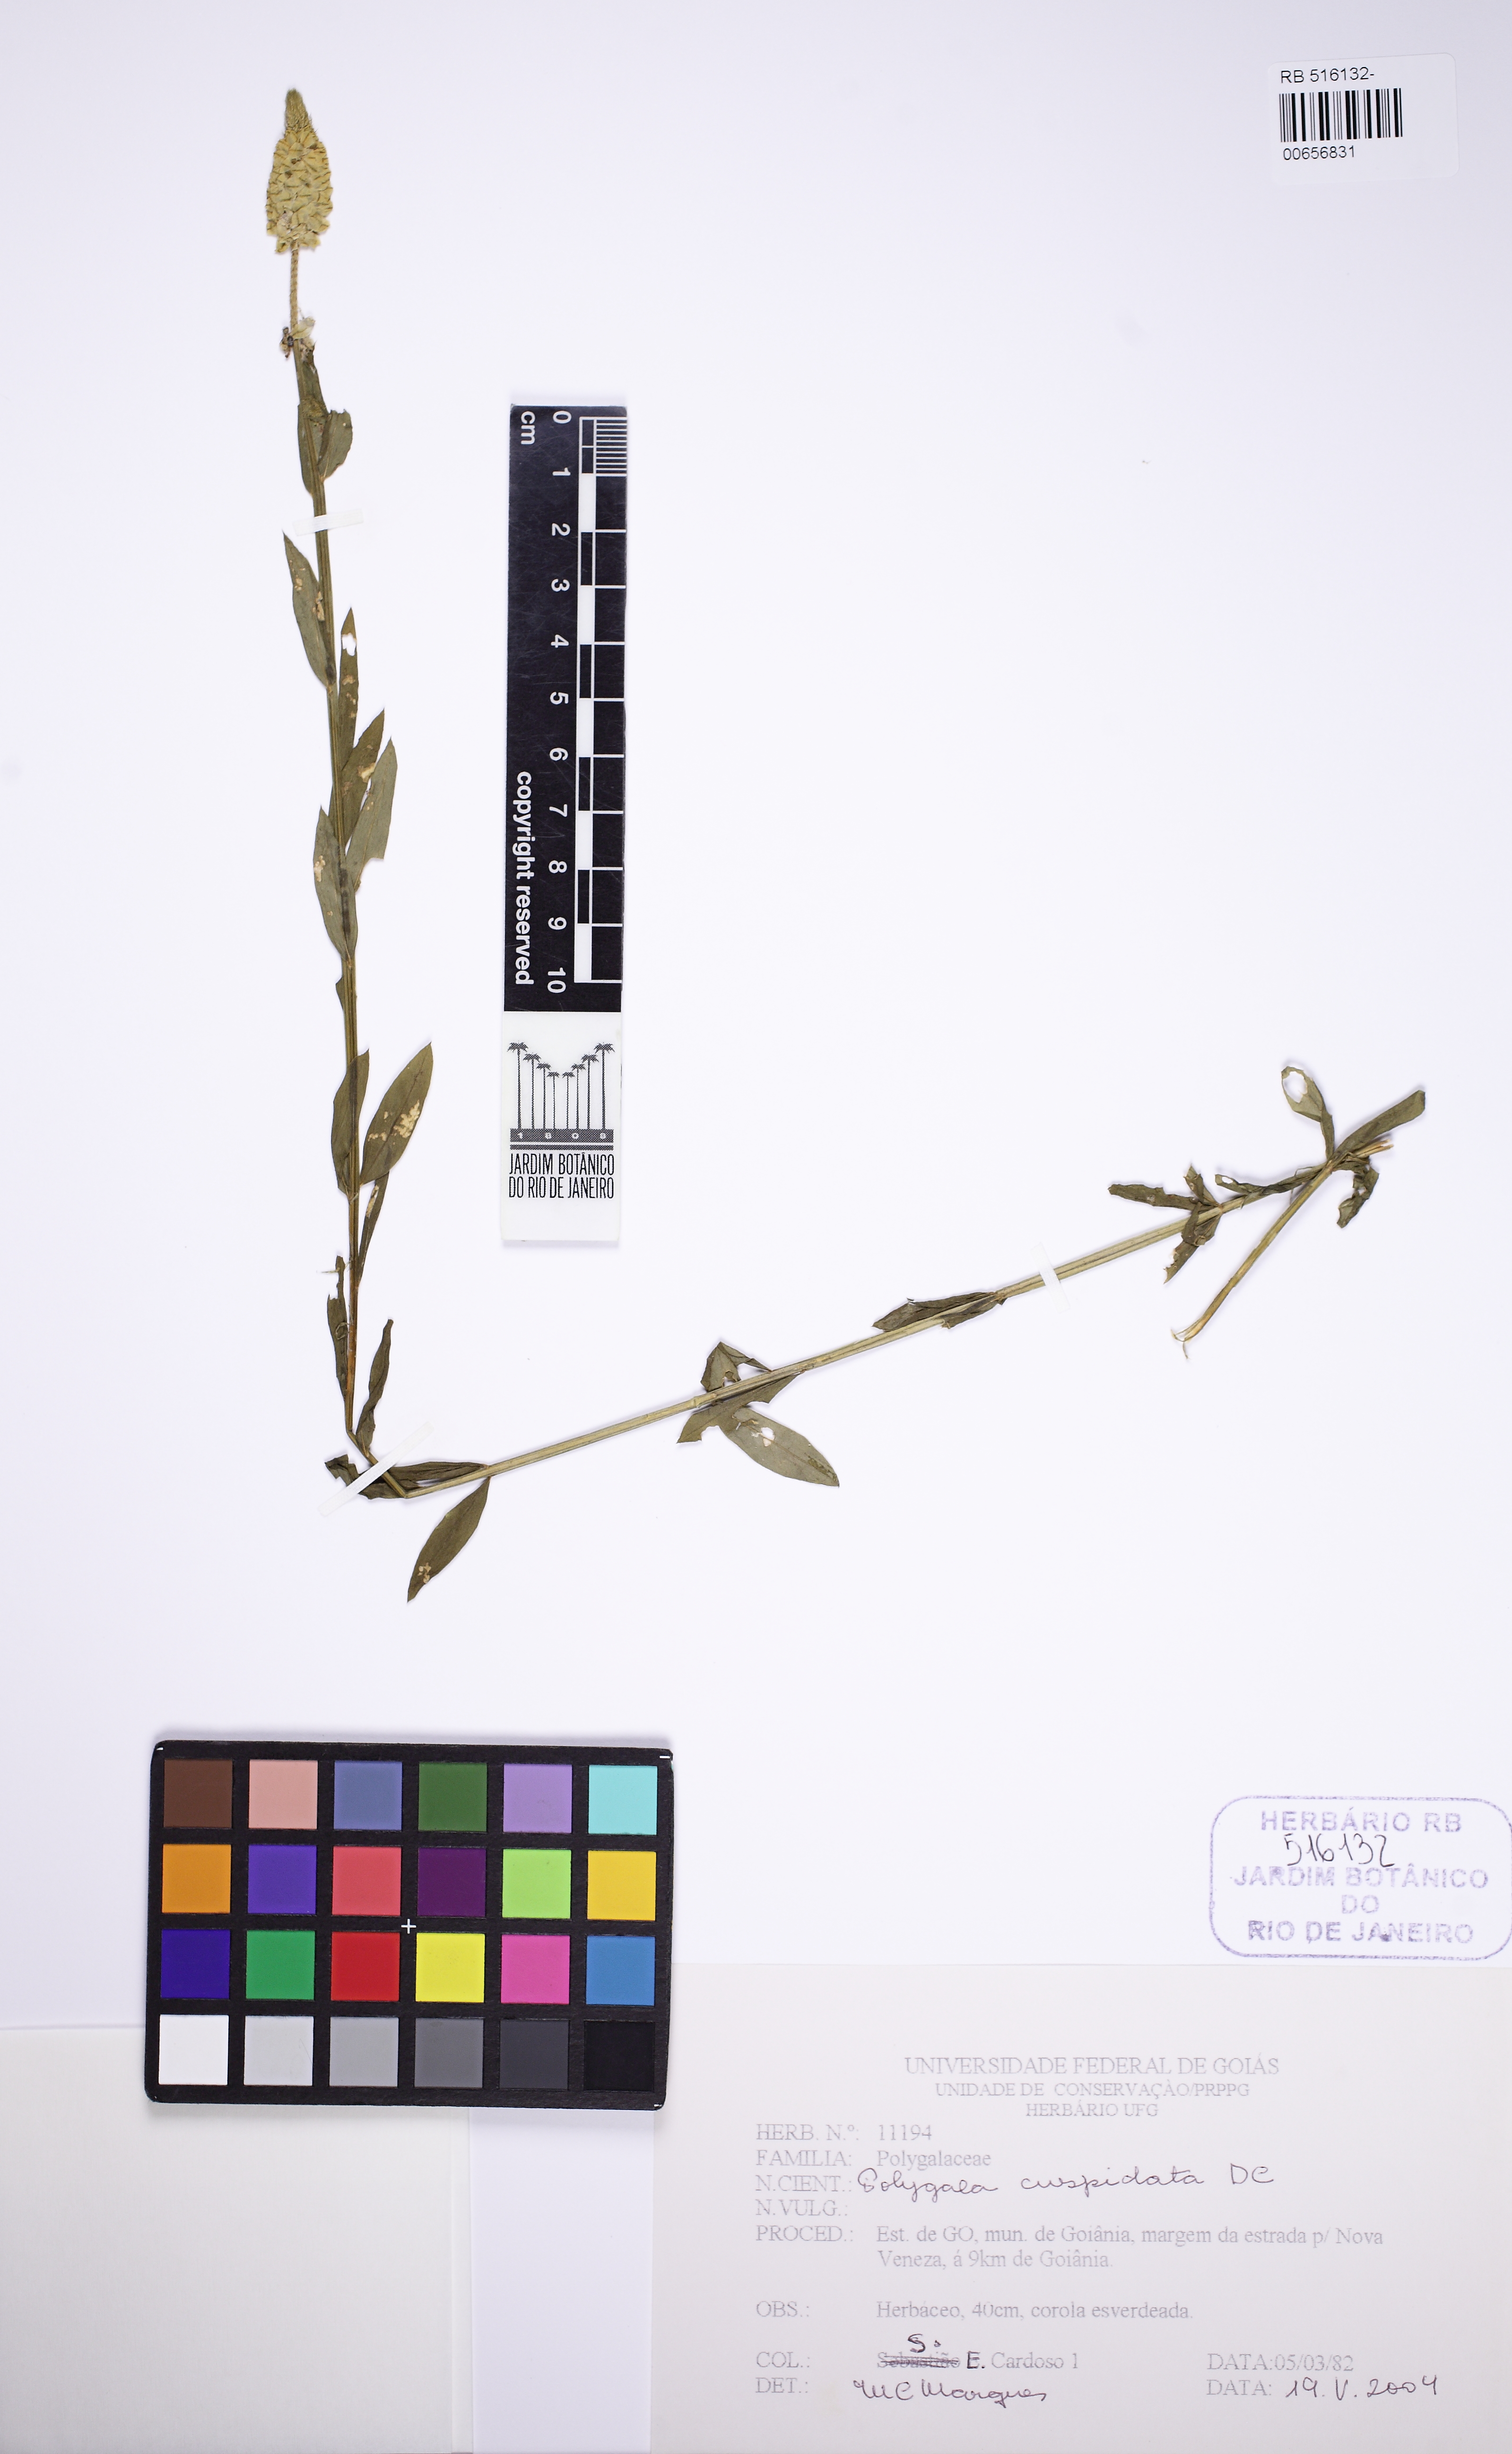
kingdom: Plantae
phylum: Tracheophyta
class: Magnoliopsida
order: Fabales
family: Polygalaceae
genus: Polygala
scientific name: Polygala cuspidata
